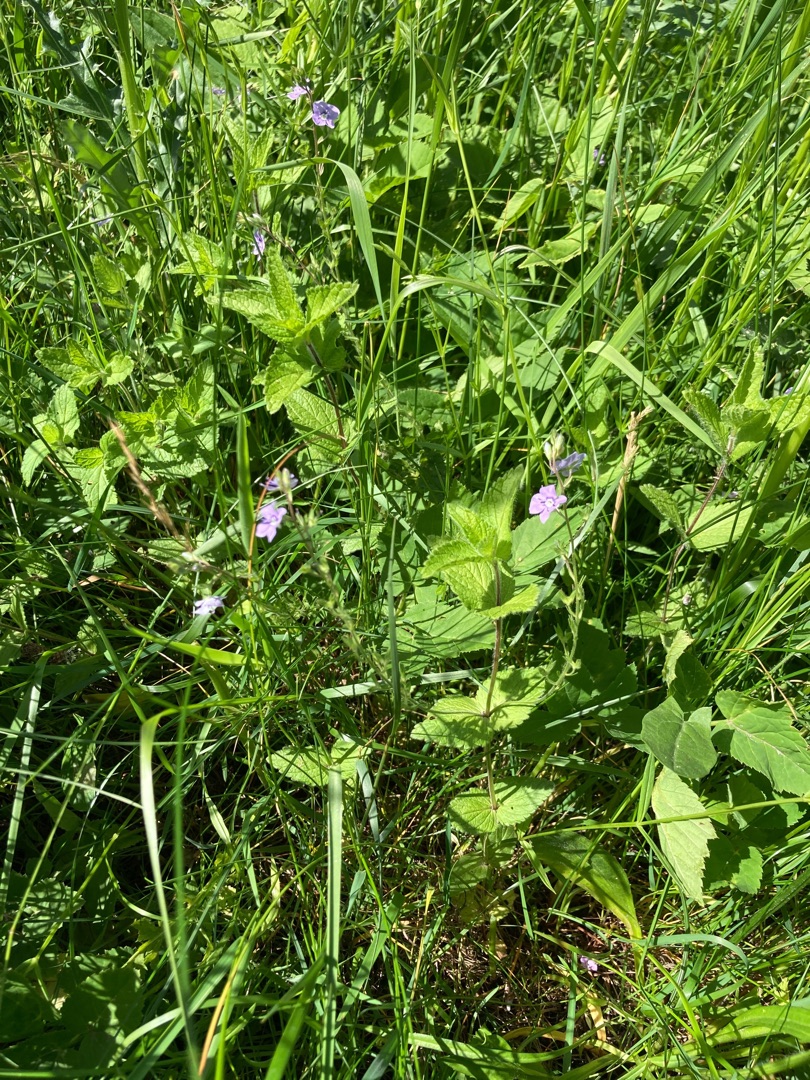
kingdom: Plantae
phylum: Tracheophyta
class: Magnoliopsida
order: Lamiales
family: Plantaginaceae
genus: Veronica
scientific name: Veronica chamaedrys
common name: Tveskægget ærenpris
